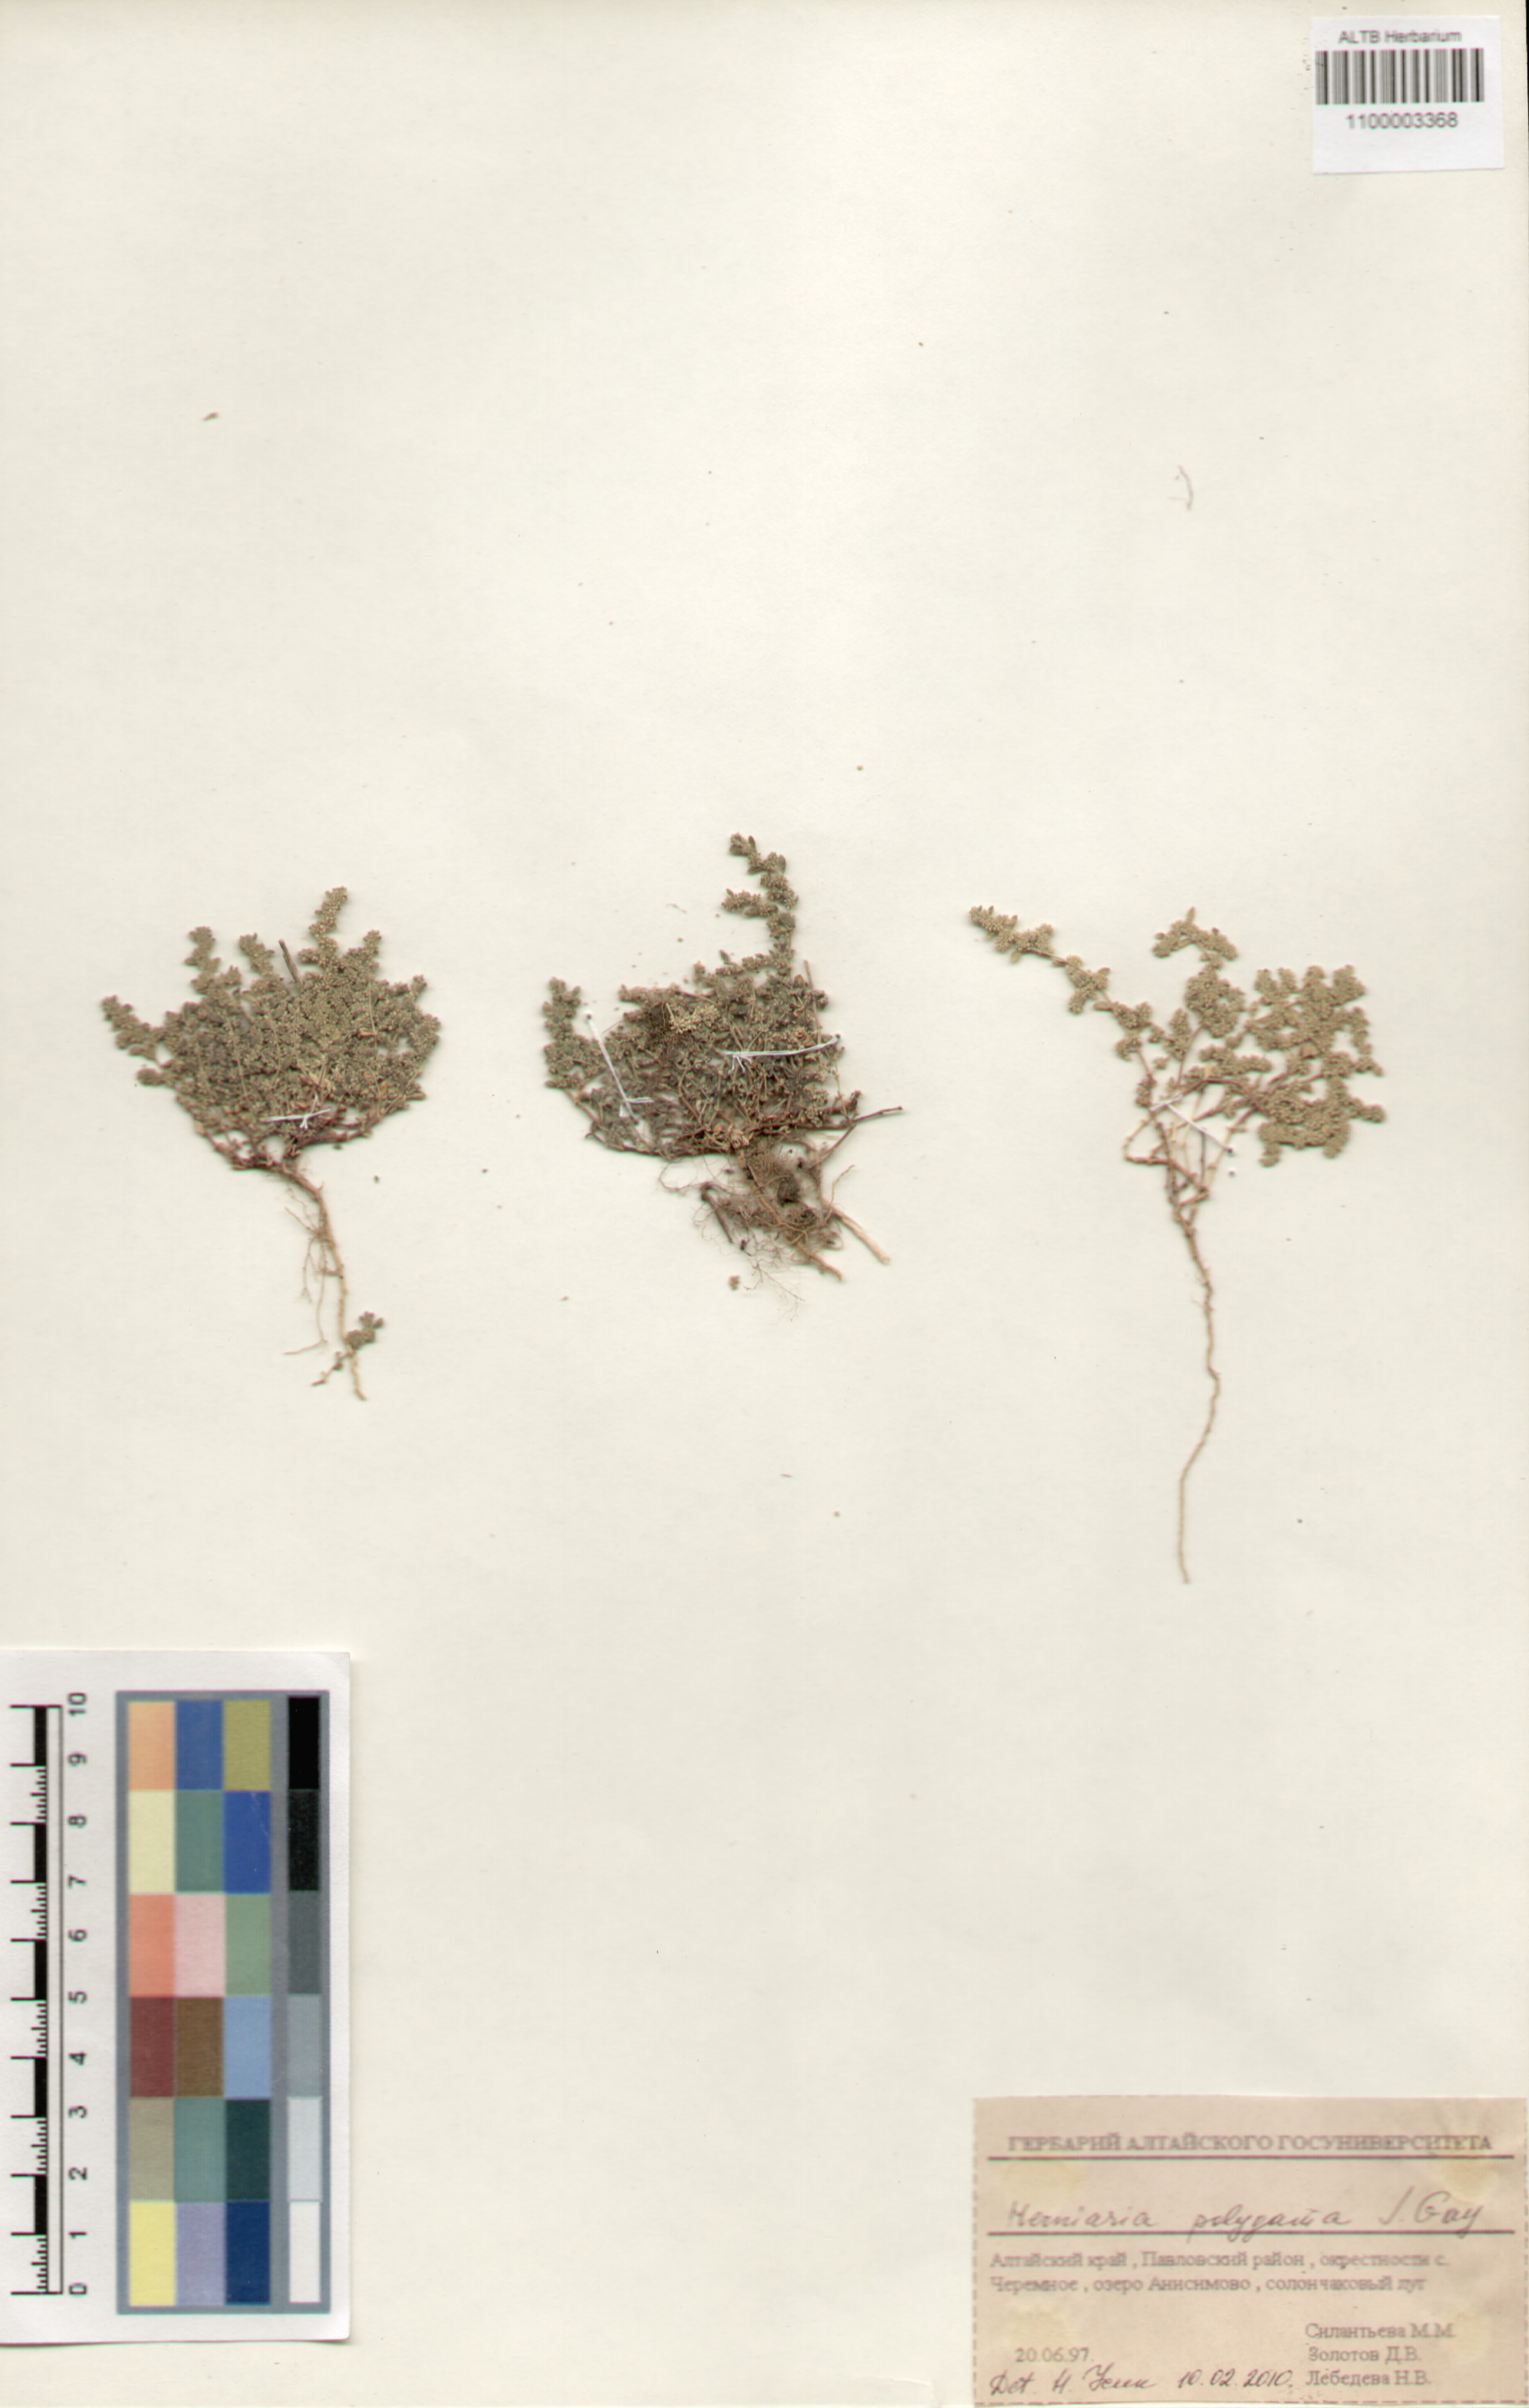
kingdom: Plantae
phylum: Tracheophyta
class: Magnoliopsida
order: Caryophyllales
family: Caryophyllaceae
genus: Herniaria
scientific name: Herniaria polygama
